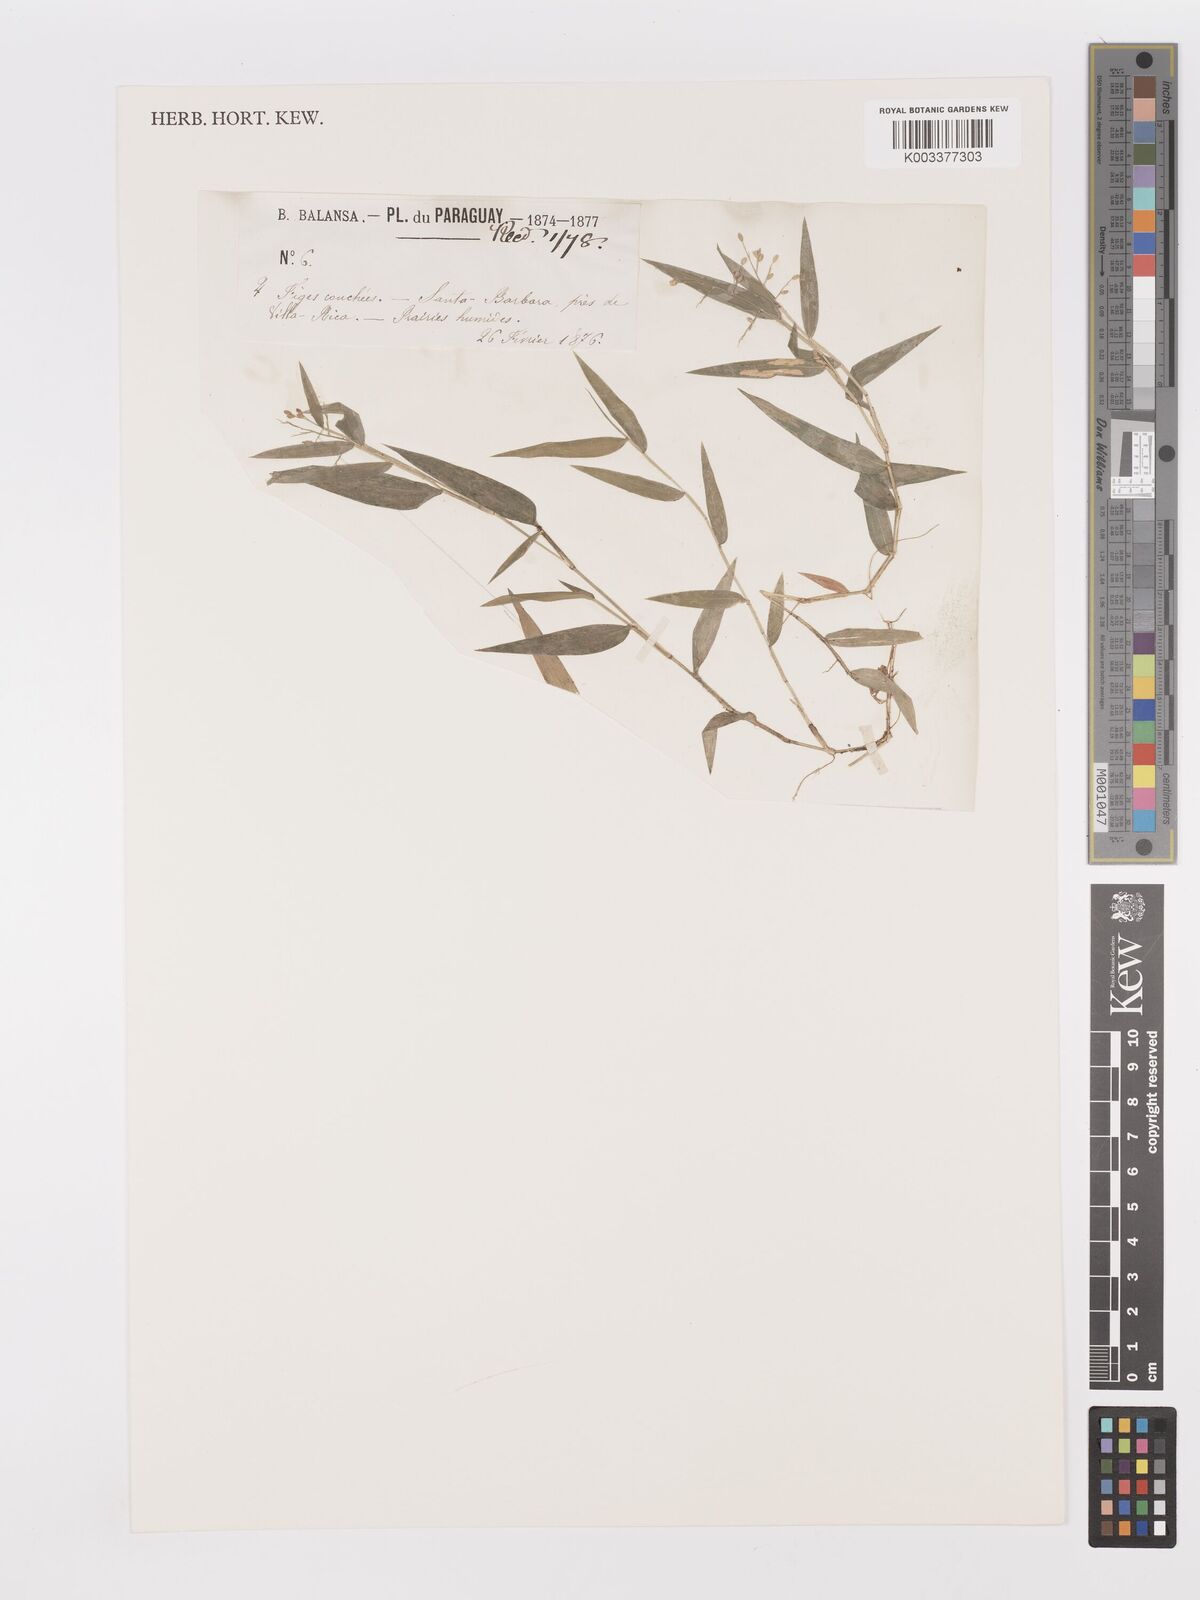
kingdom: Plantae
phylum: Tracheophyta
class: Liliopsida
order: Poales
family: Poaceae
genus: Dichanthelium
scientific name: Dichanthelium sabulorum
